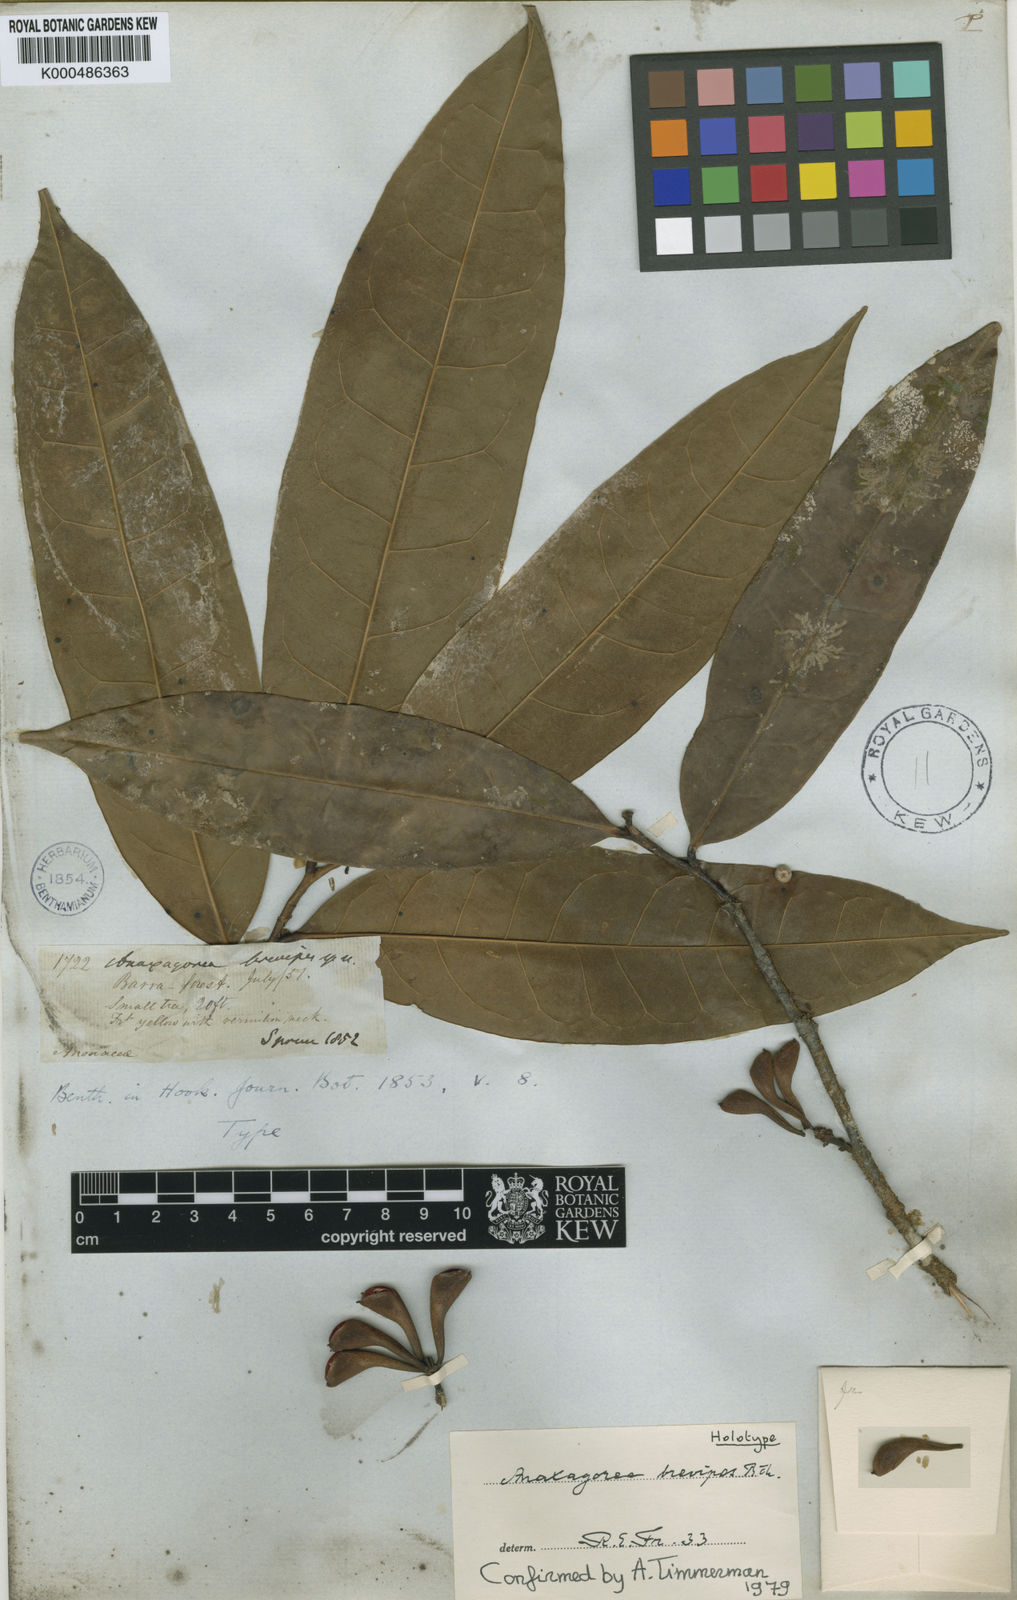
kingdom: Plantae
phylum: Tracheophyta
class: Magnoliopsida
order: Magnoliales
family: Annonaceae
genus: Anaxagorea
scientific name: Anaxagorea brevipes
